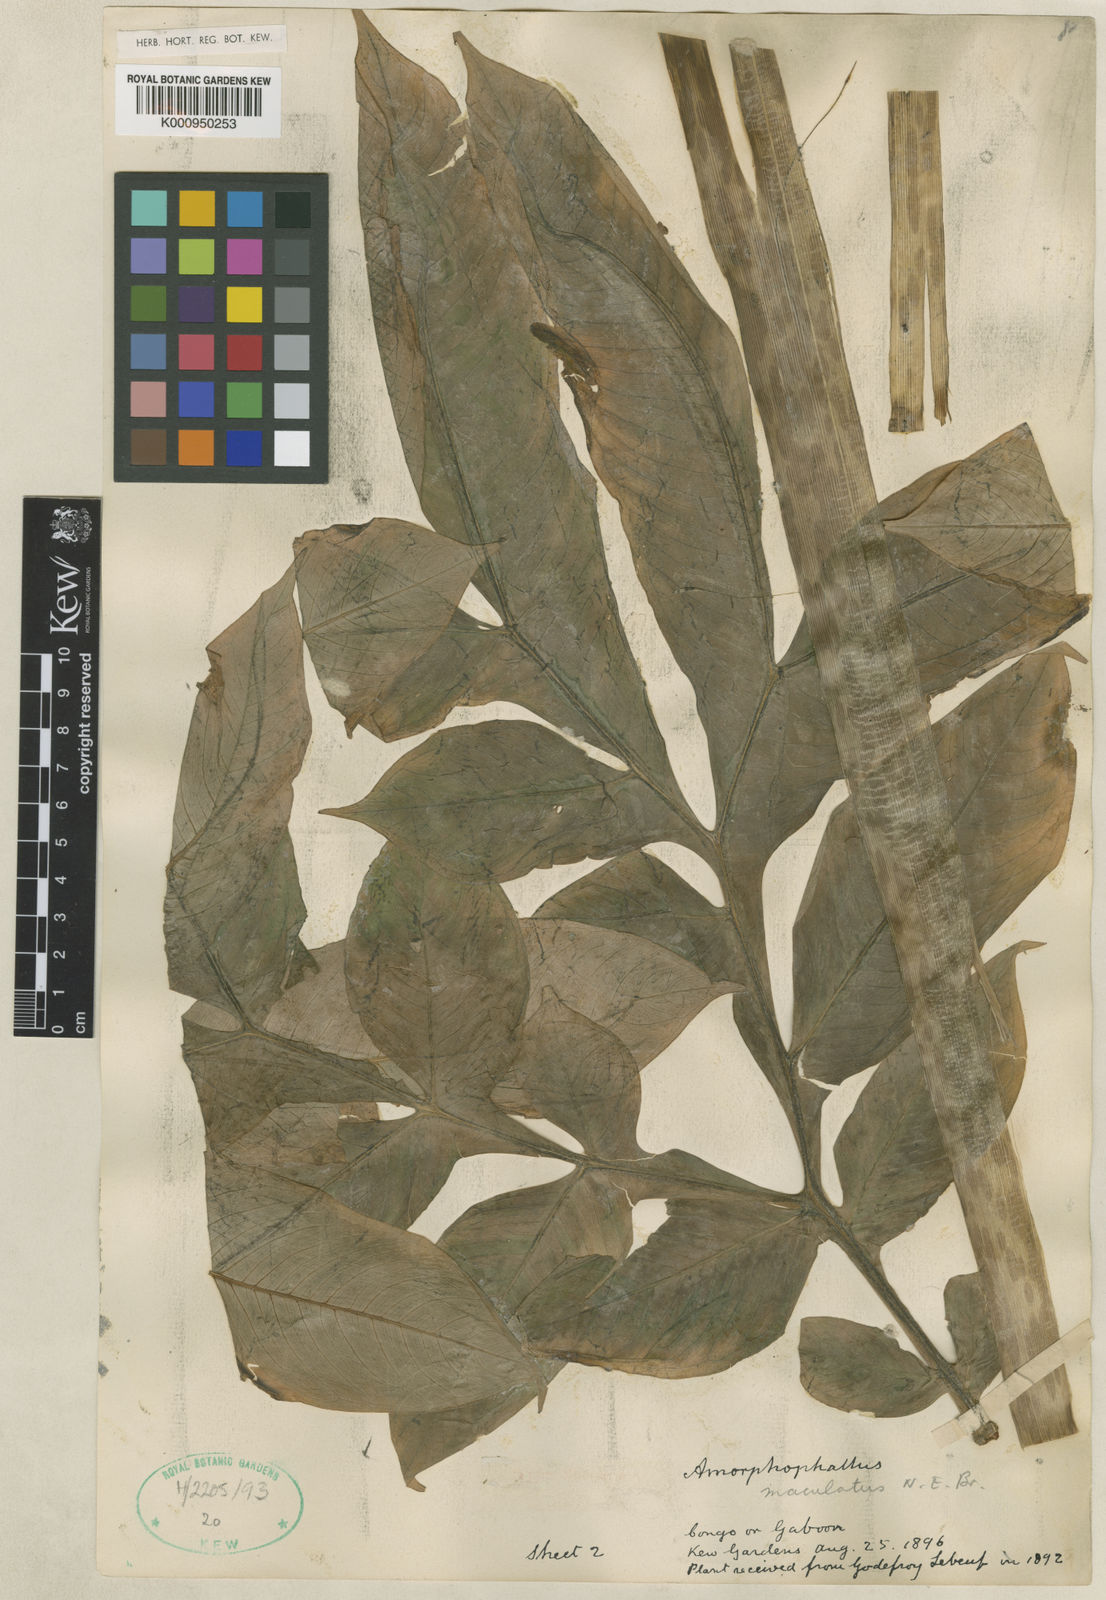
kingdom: Plantae
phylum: Tracheophyta
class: Liliopsida
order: Alismatales
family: Araceae
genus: Amorphophallus
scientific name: Amorphophallus angolensis
